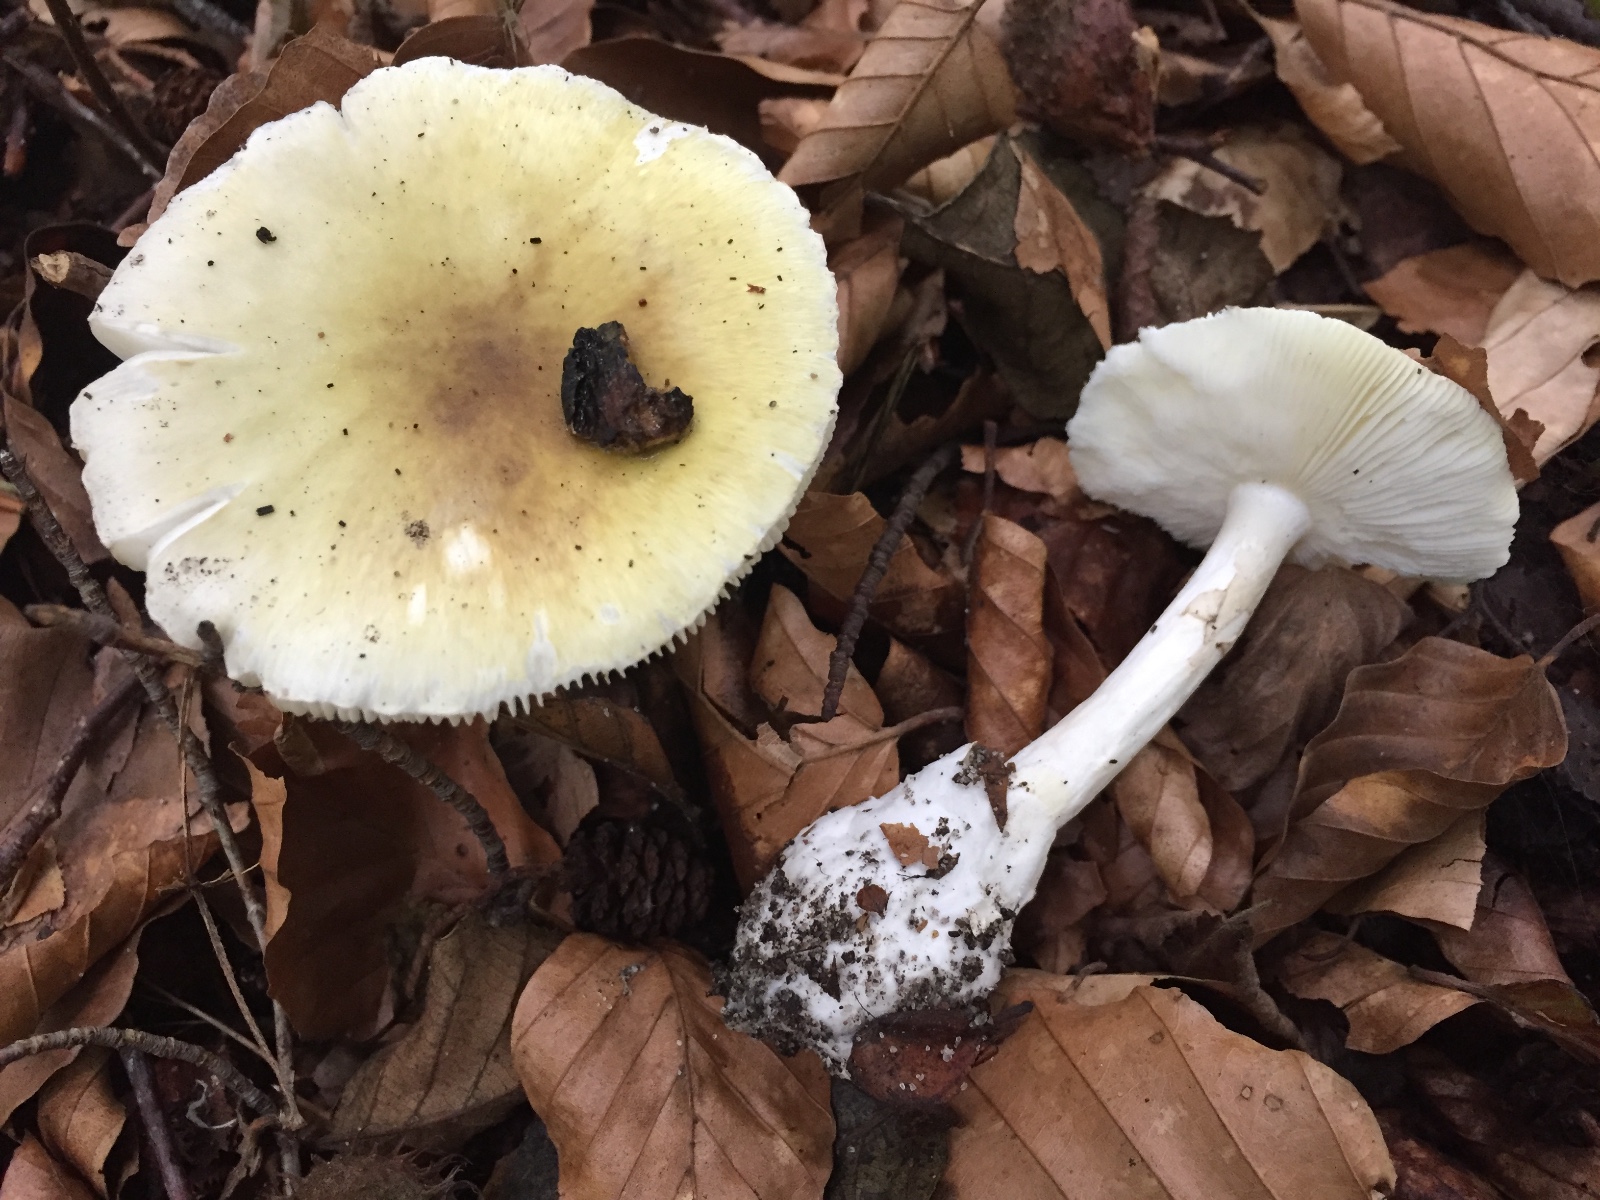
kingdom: Fungi
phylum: Basidiomycota
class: Agaricomycetes
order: Agaricales
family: Amanitaceae
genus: Amanita
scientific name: Amanita phalloides
